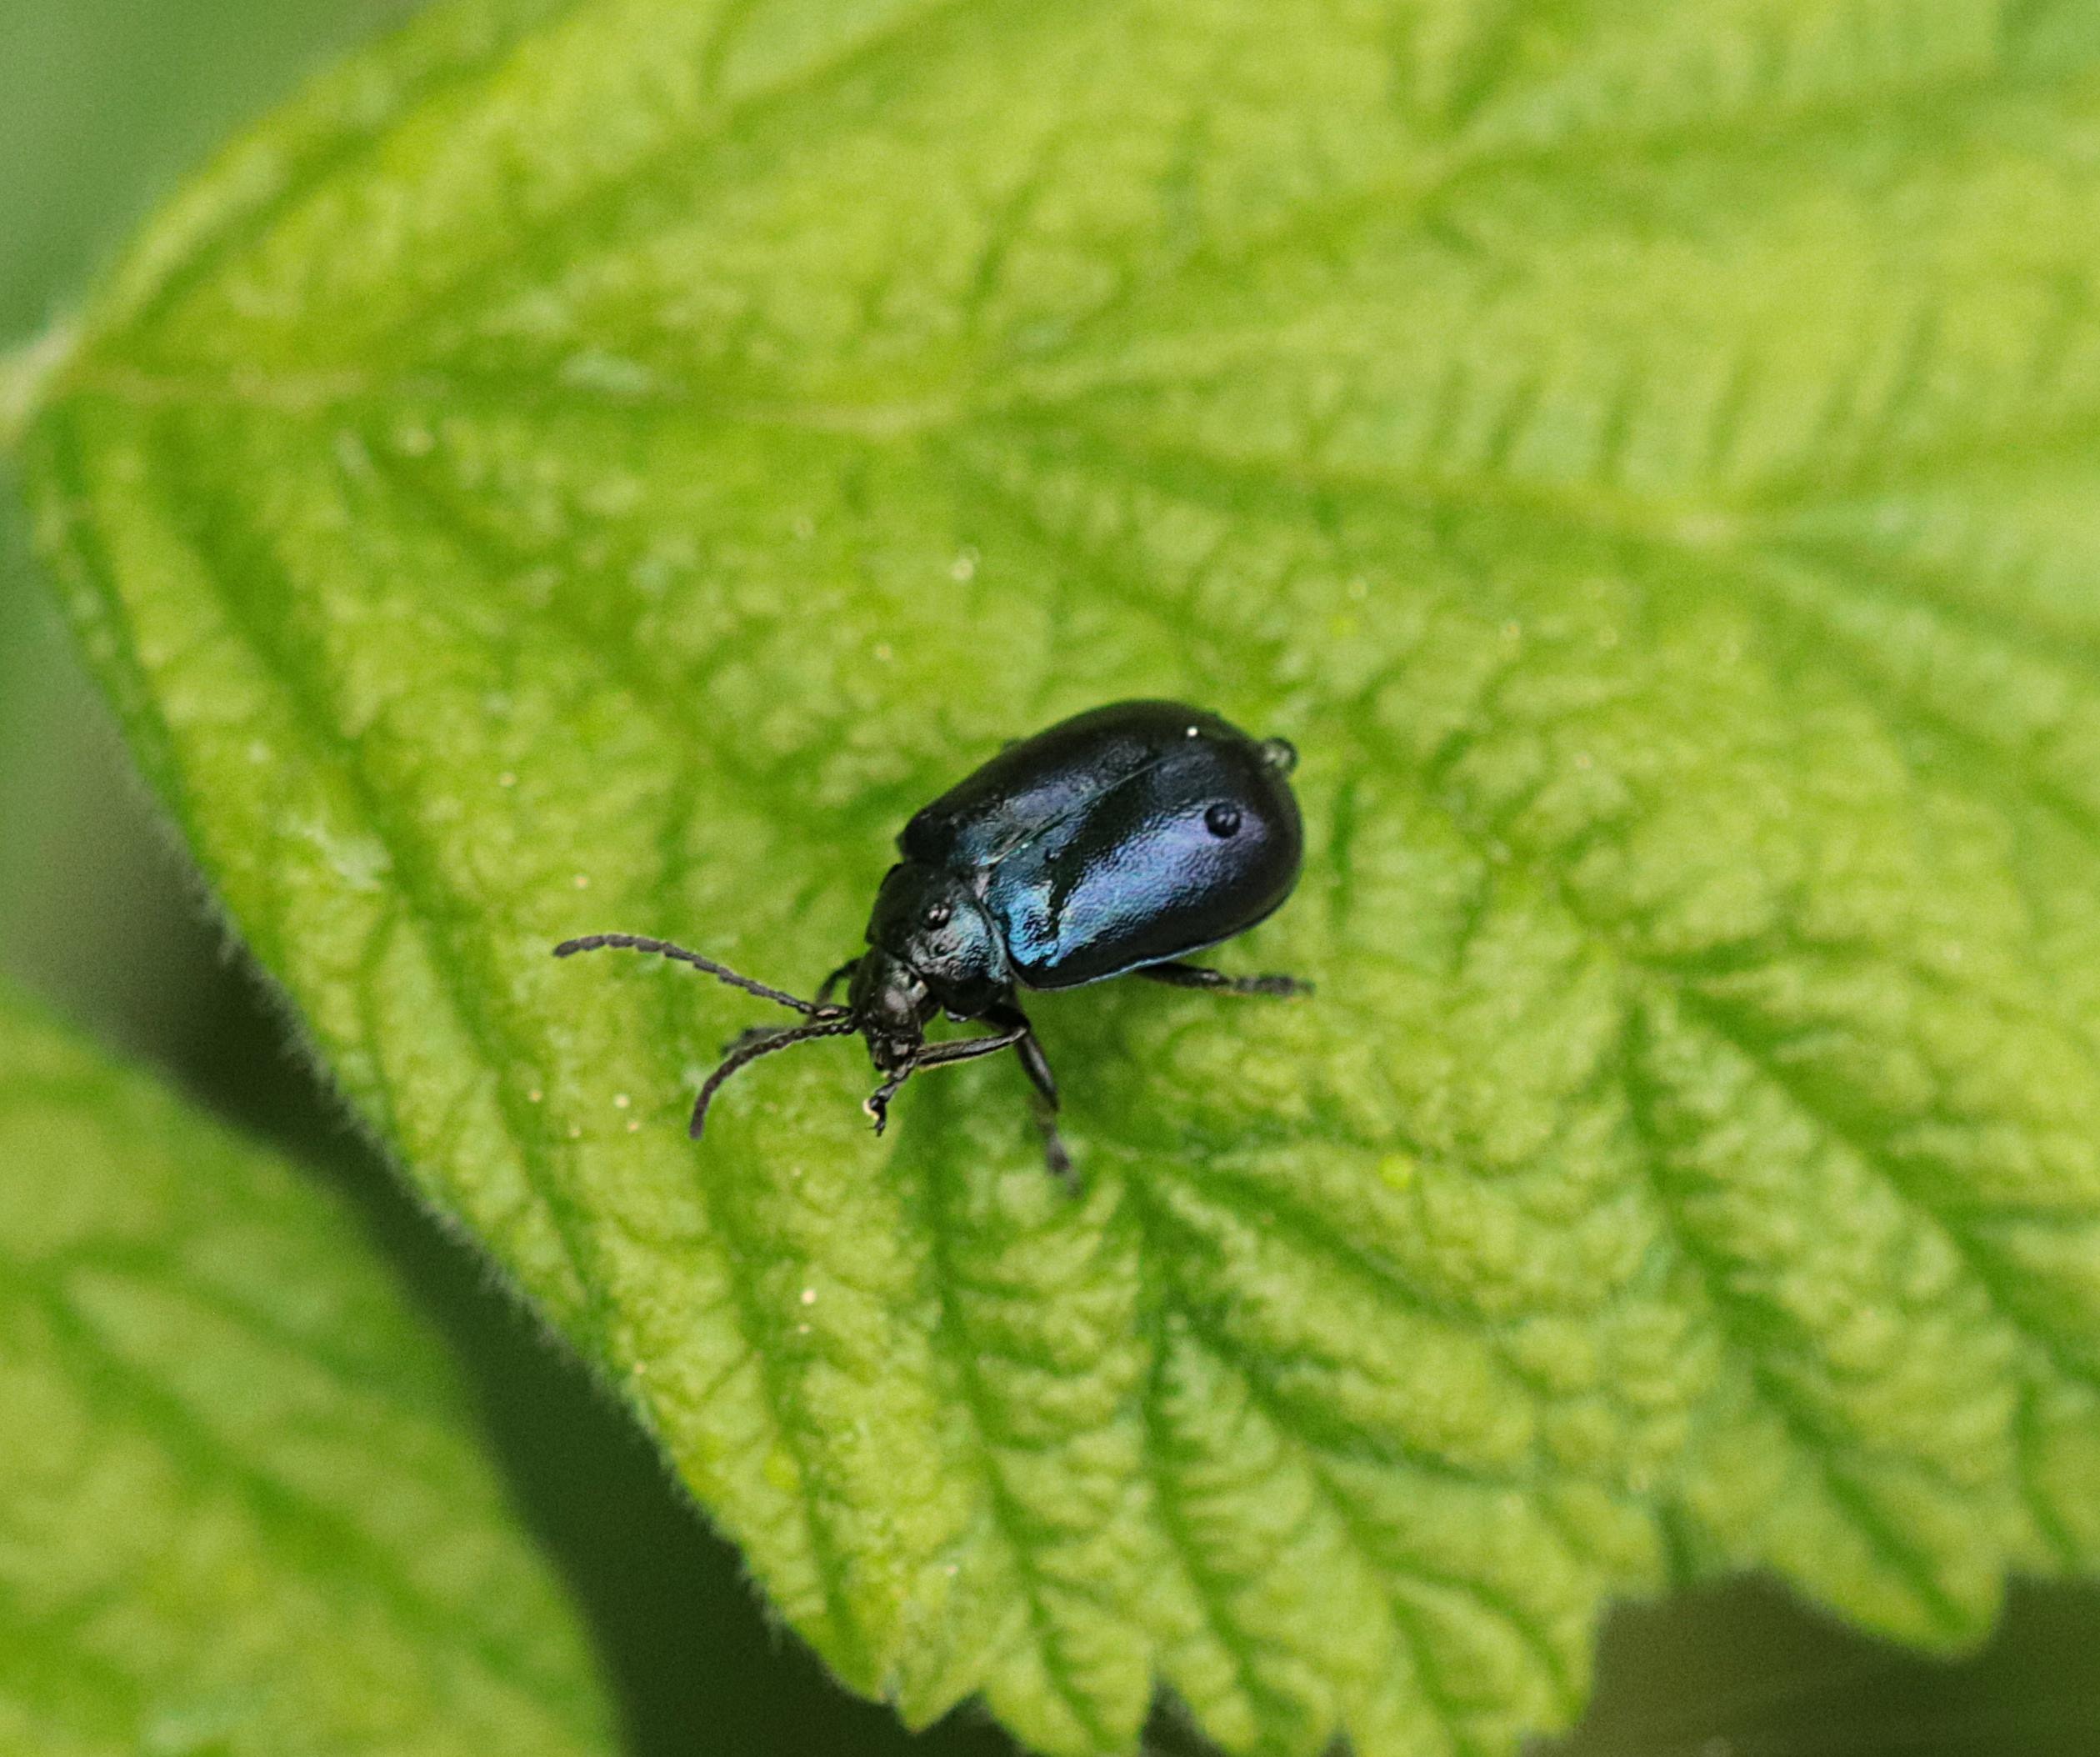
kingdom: Animalia
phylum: Arthropoda
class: Insecta
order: Coleoptera
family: Chrysomelidae
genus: Agelastica
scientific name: Agelastica alni
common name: Ellebladbille
